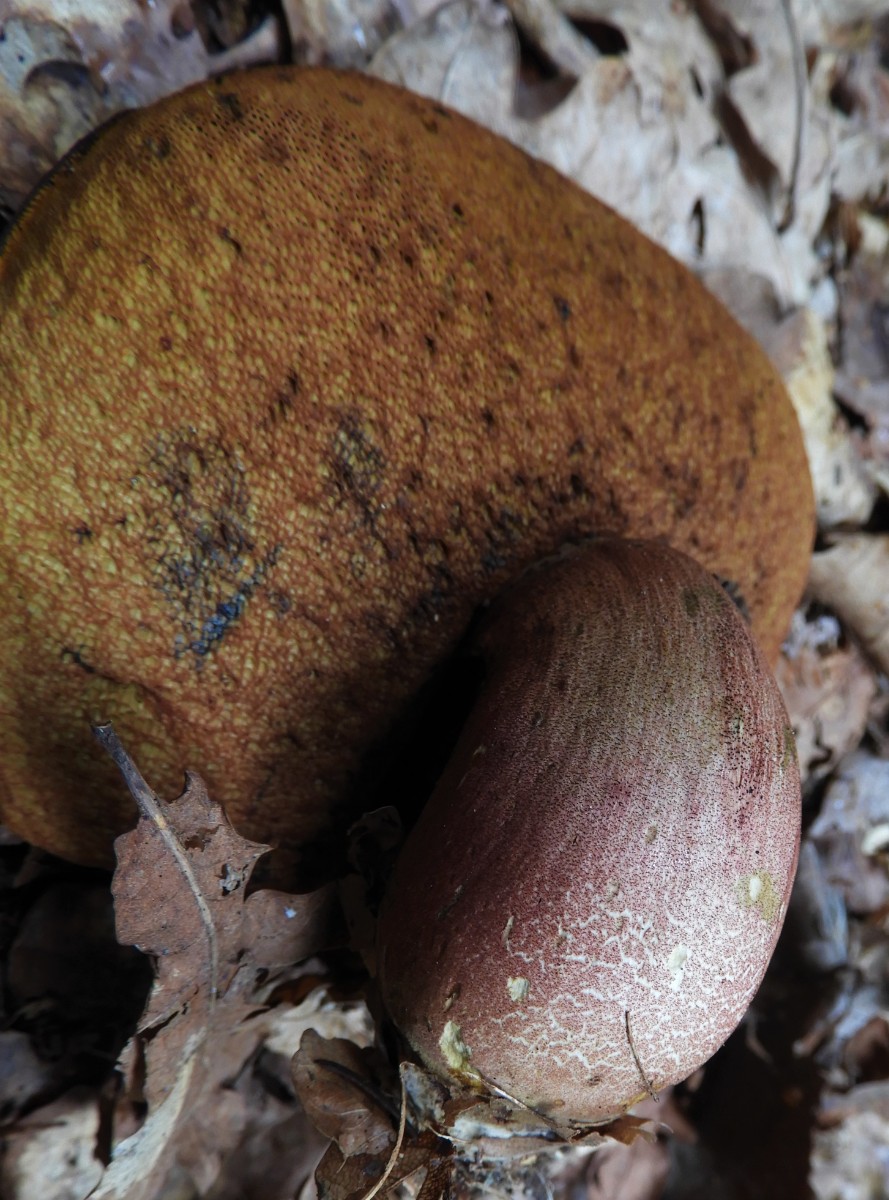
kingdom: Fungi
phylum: Basidiomycota
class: Agaricomycetes
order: Boletales
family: Boletaceae
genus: Neoboletus
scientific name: Neoboletus erythropus
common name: punktstokket indigorørhat
